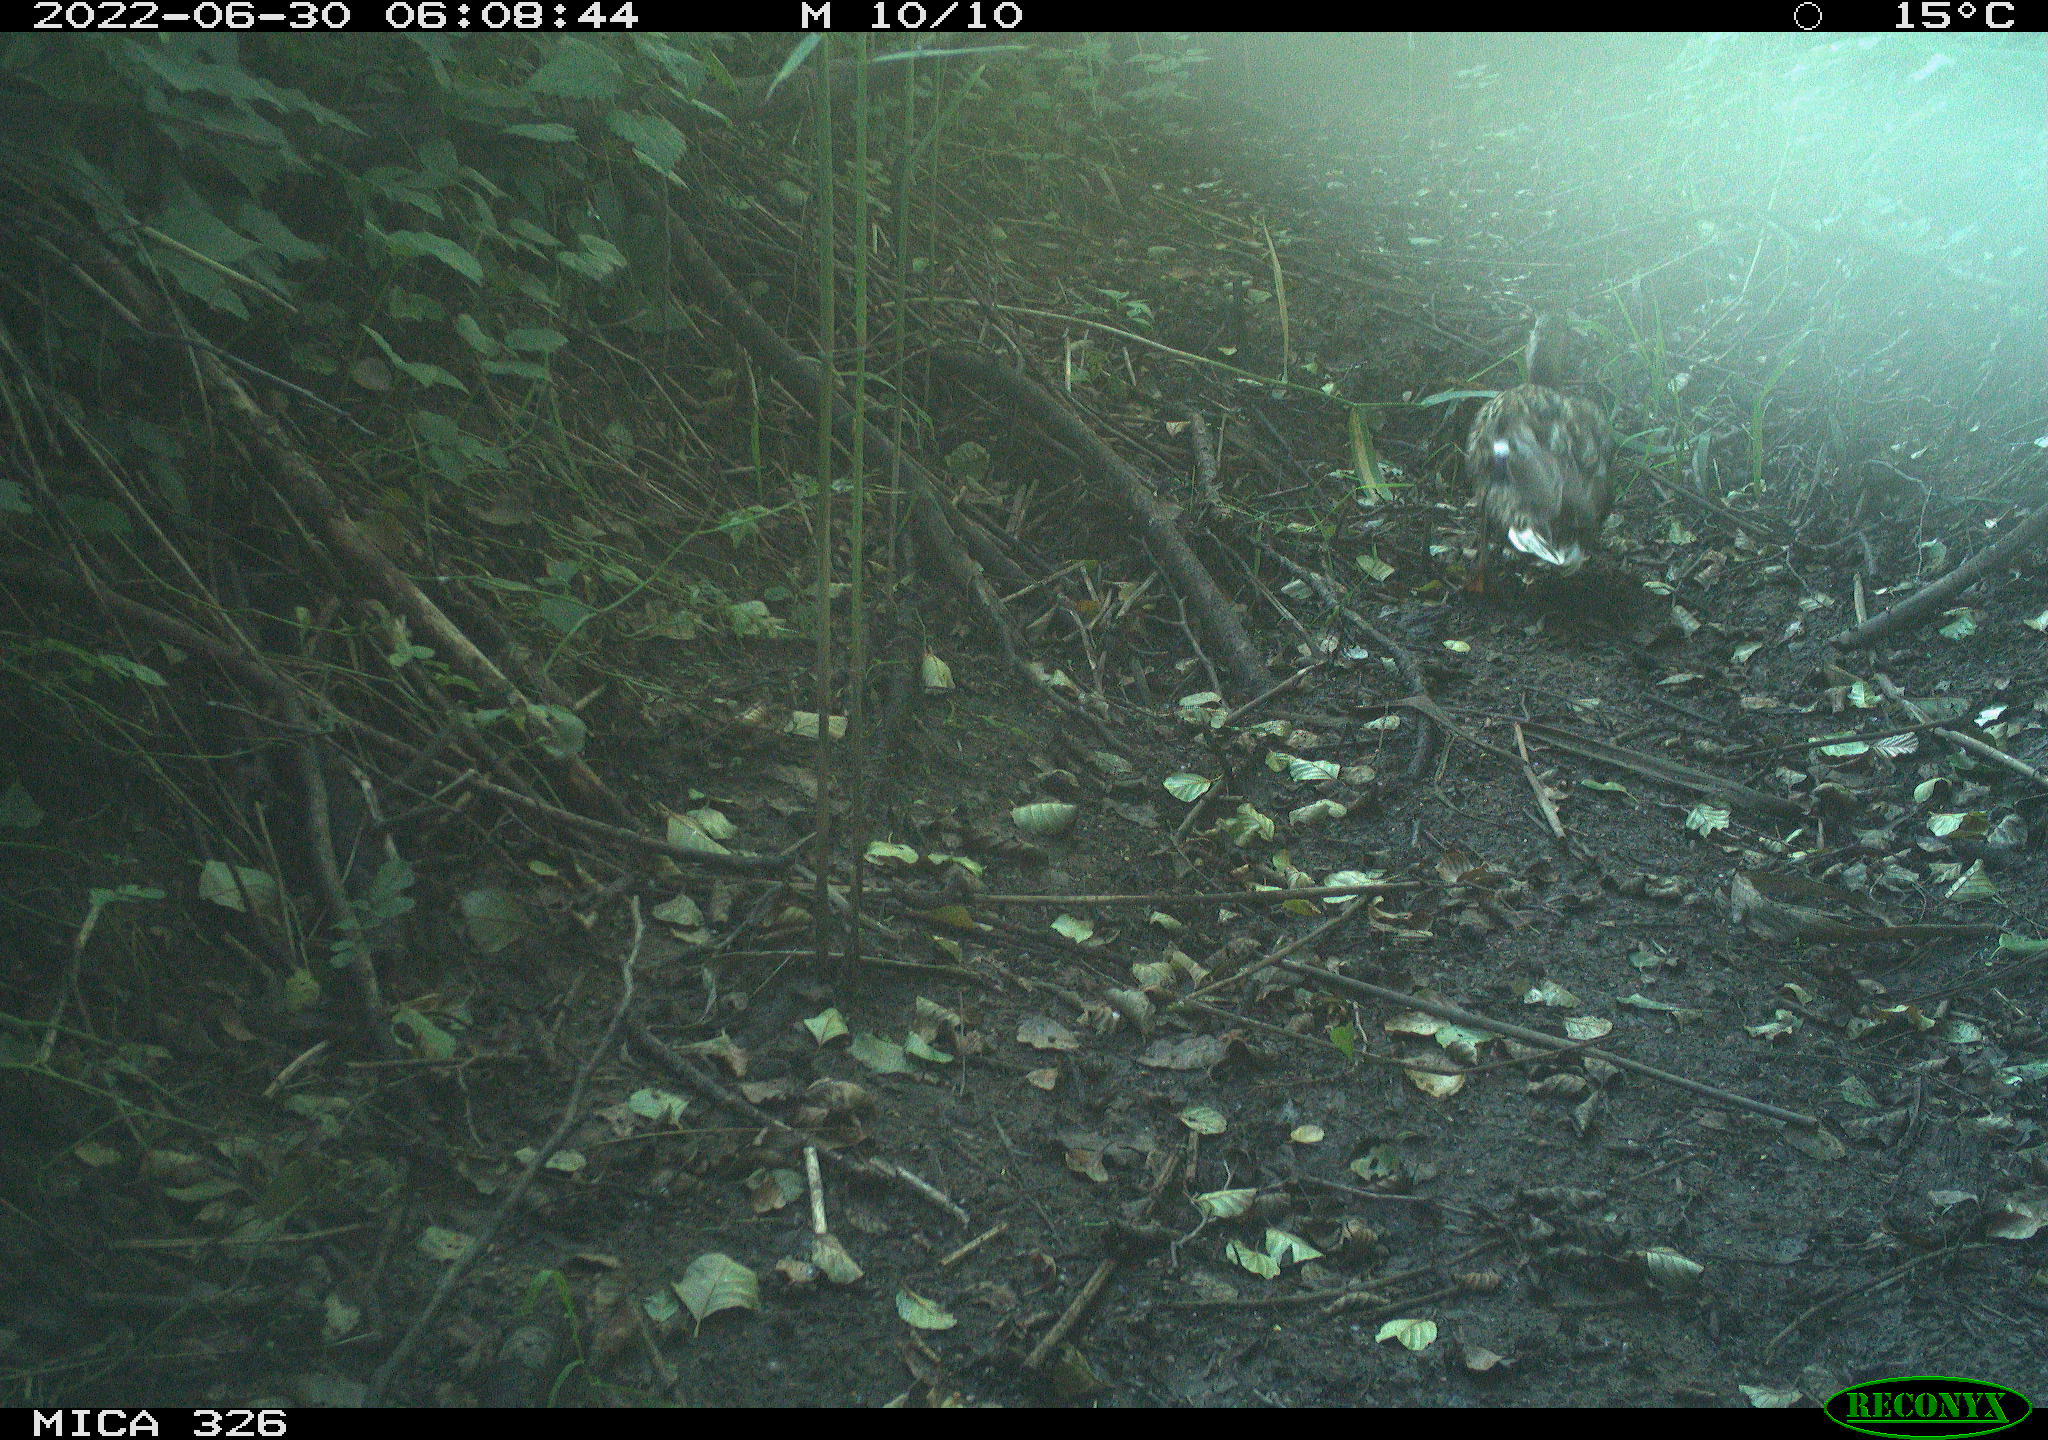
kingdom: Animalia
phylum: Chordata
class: Aves
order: Anseriformes
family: Anatidae
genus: Anas
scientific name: Anas
